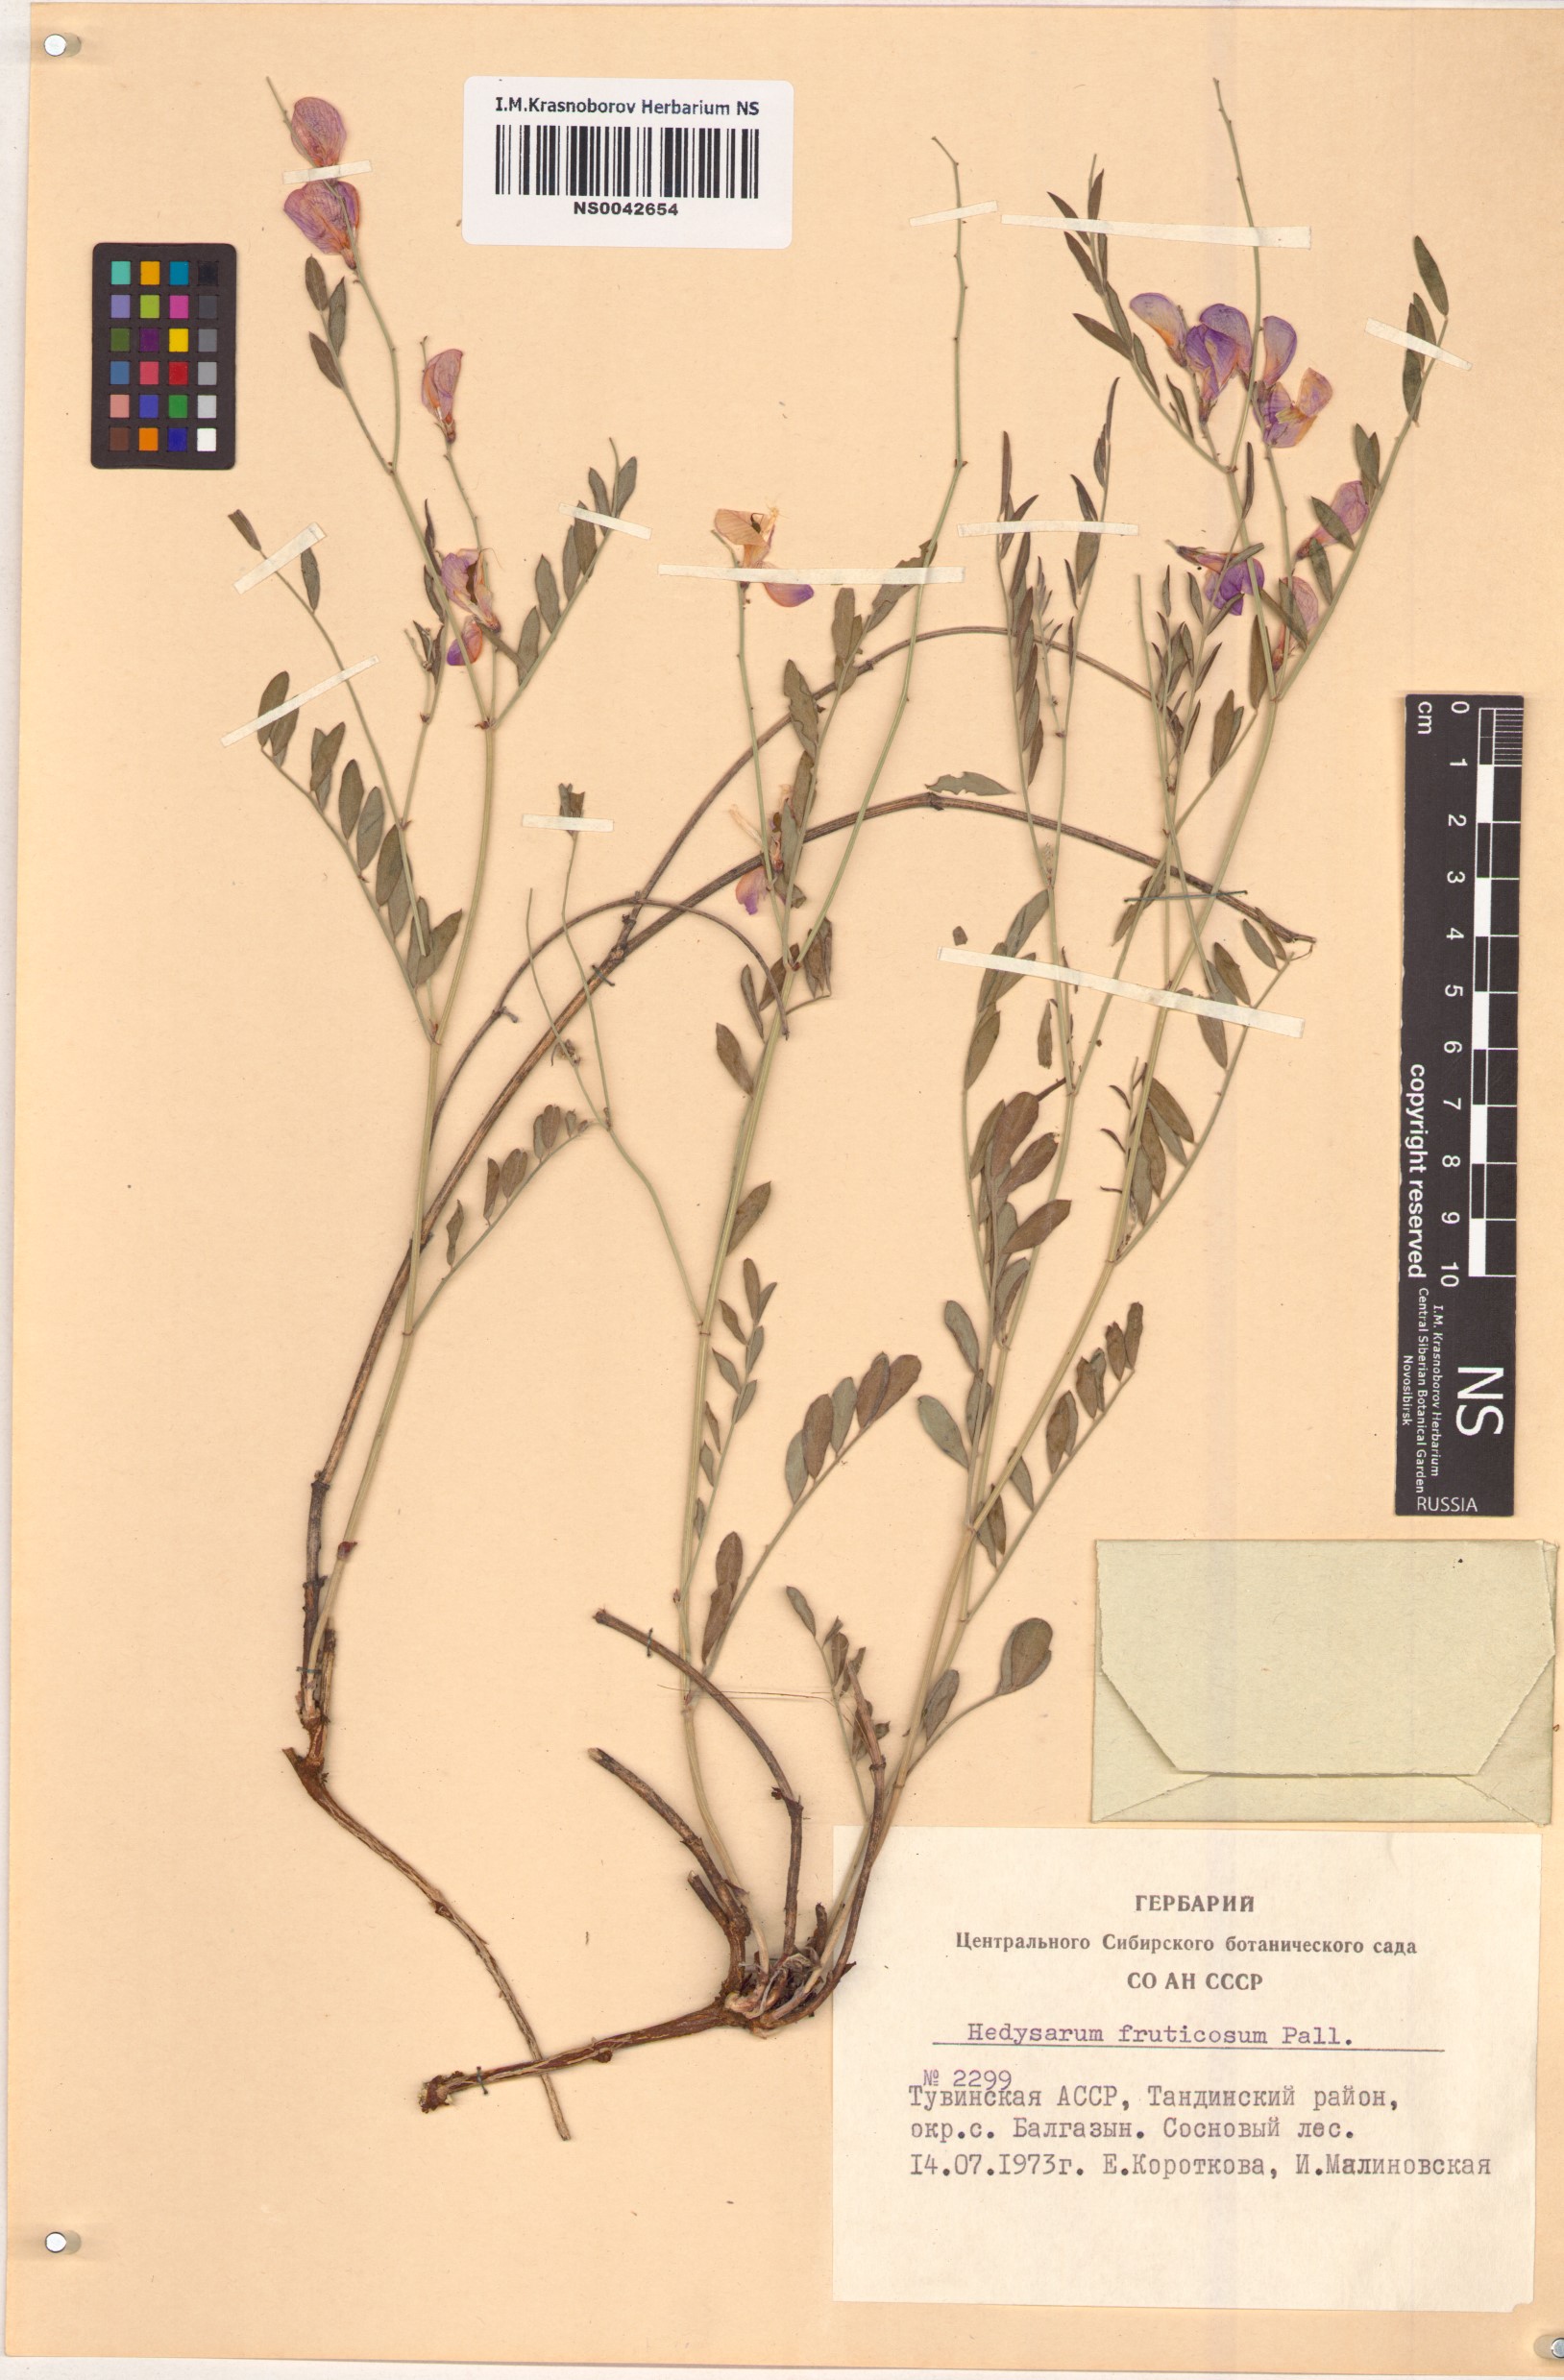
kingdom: Plantae
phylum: Tracheophyta
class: Magnoliopsida
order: Fabales
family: Fabaceae
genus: Corethrodendron
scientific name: Corethrodendron fruticosum
